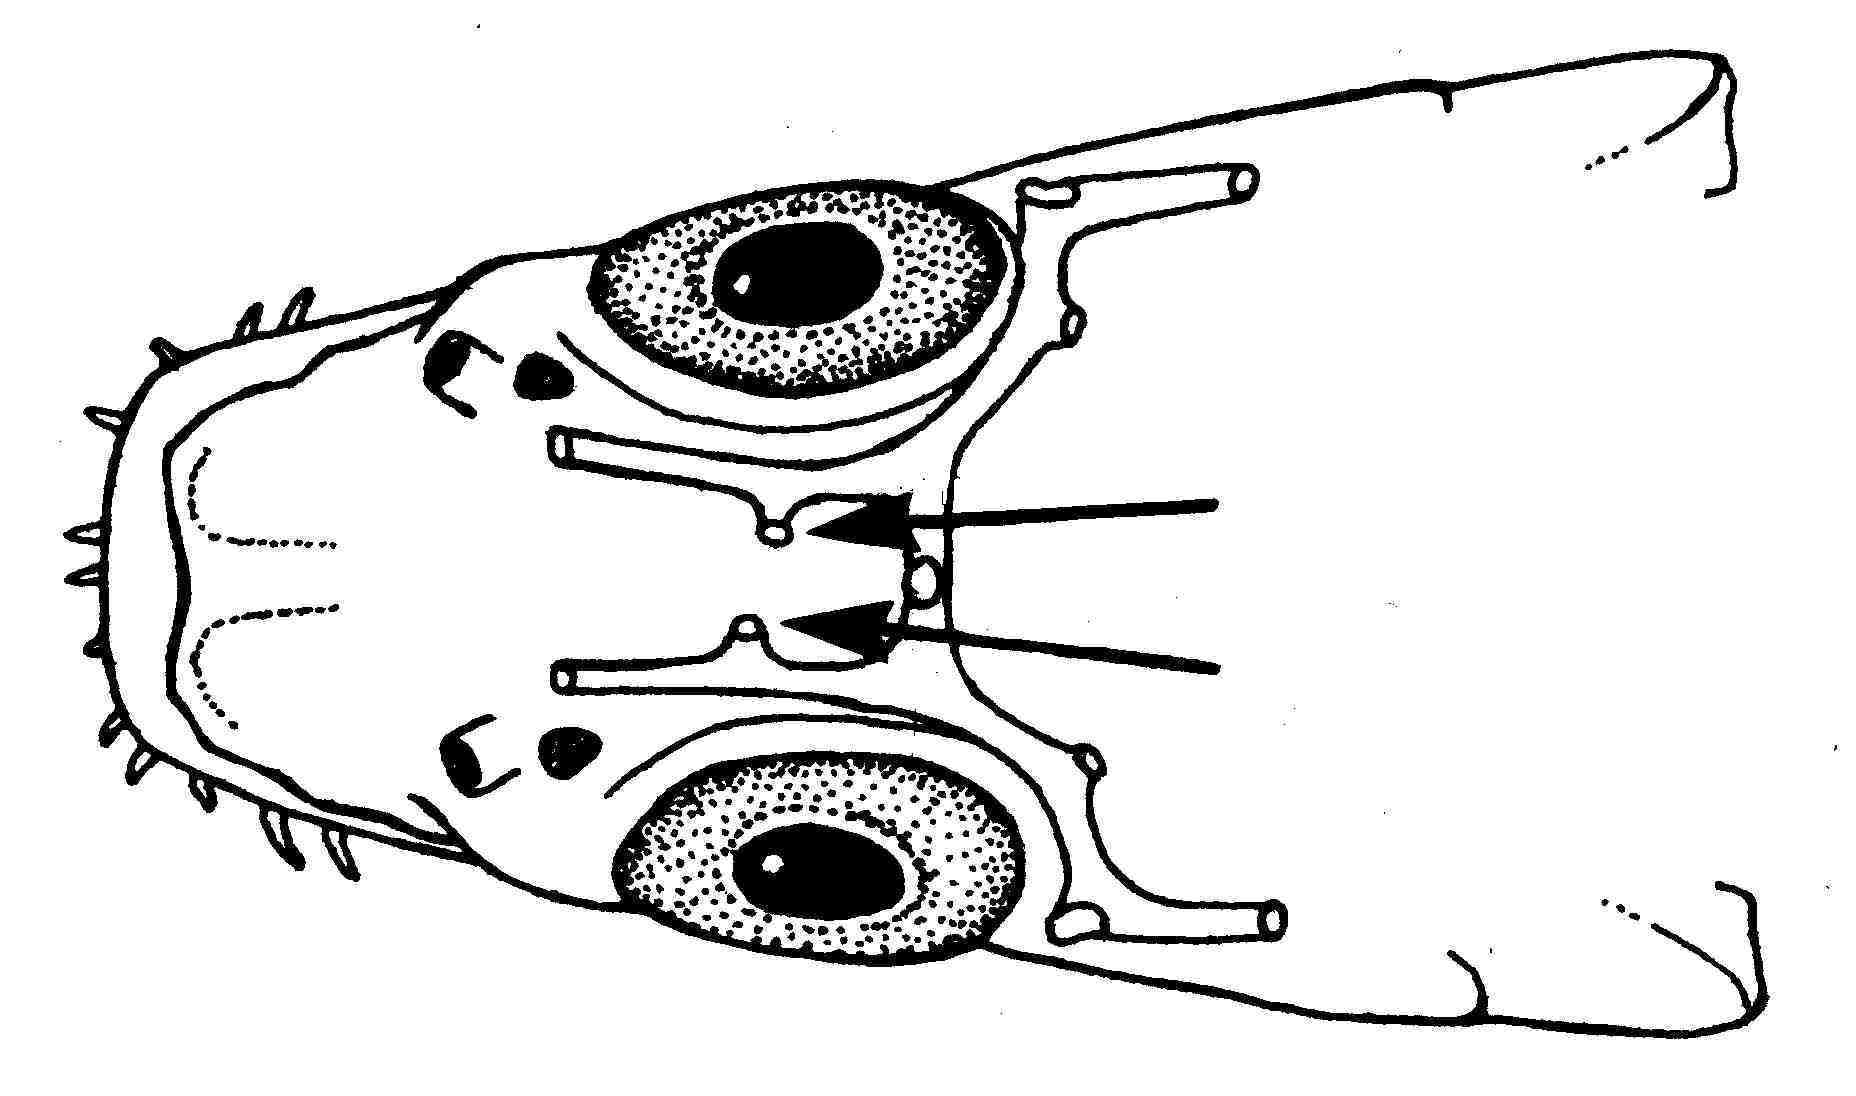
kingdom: Animalia
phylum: Chordata
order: Perciformes
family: Gobiidae
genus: Bryaninops
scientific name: Bryaninops yongei
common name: Whip coral goby
